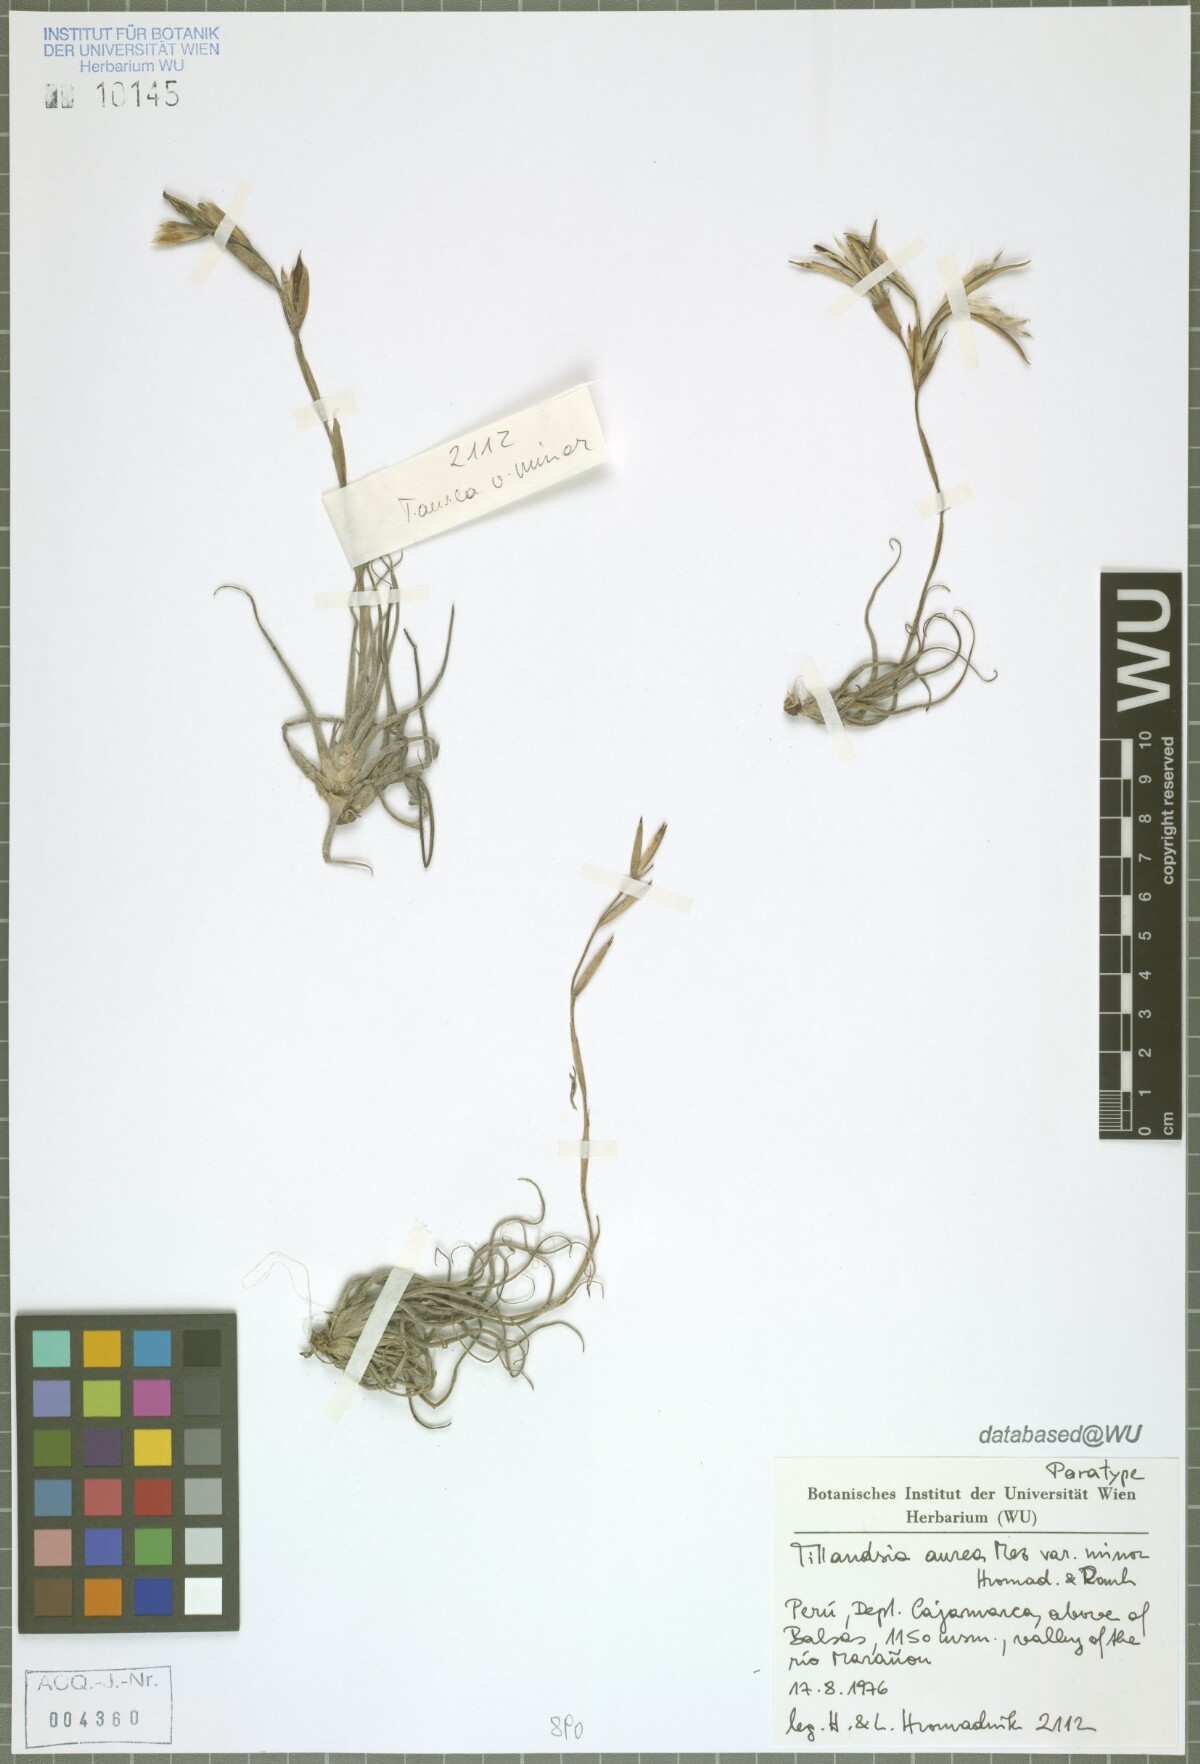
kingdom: Plantae
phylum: Tracheophyta
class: Liliopsida
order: Poales
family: Bromeliaceae
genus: Tillandsia
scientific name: Tillandsia aurea
